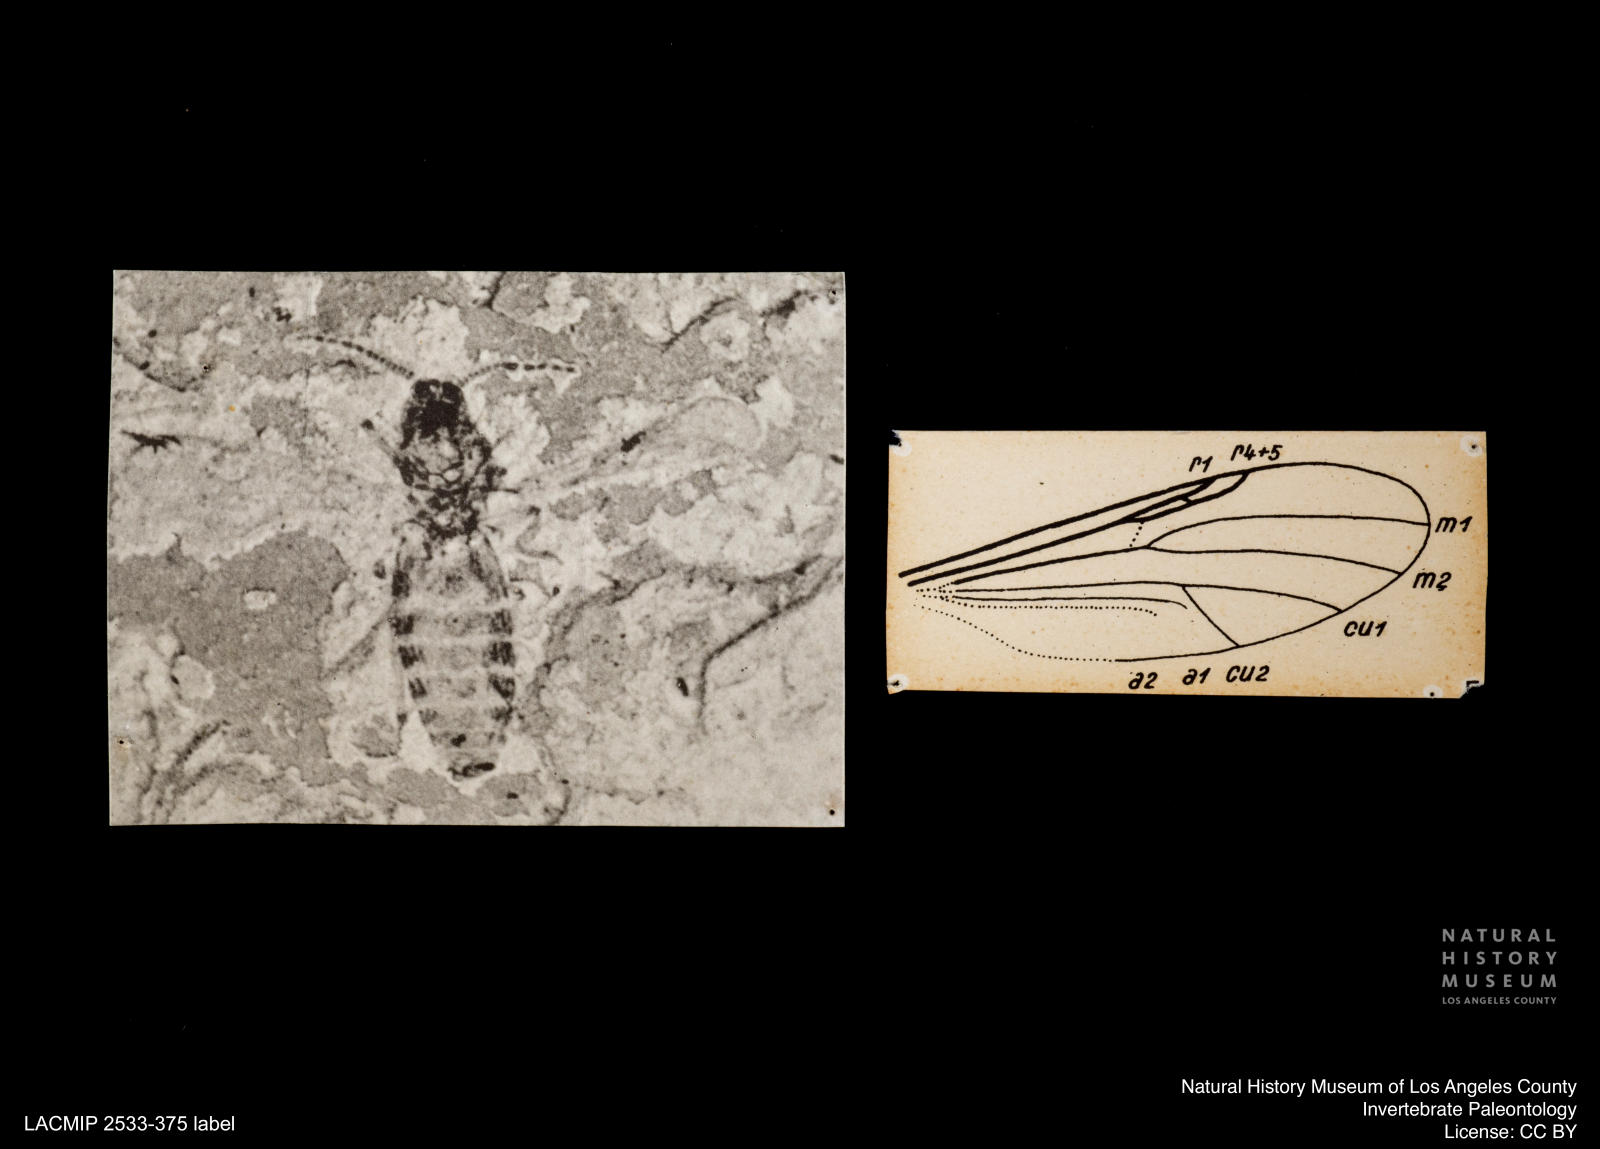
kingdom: Animalia
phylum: Arthropoda
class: Insecta
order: Diptera
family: Ceratopogonidae
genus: Culicoides
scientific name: Culicoides jucundus
